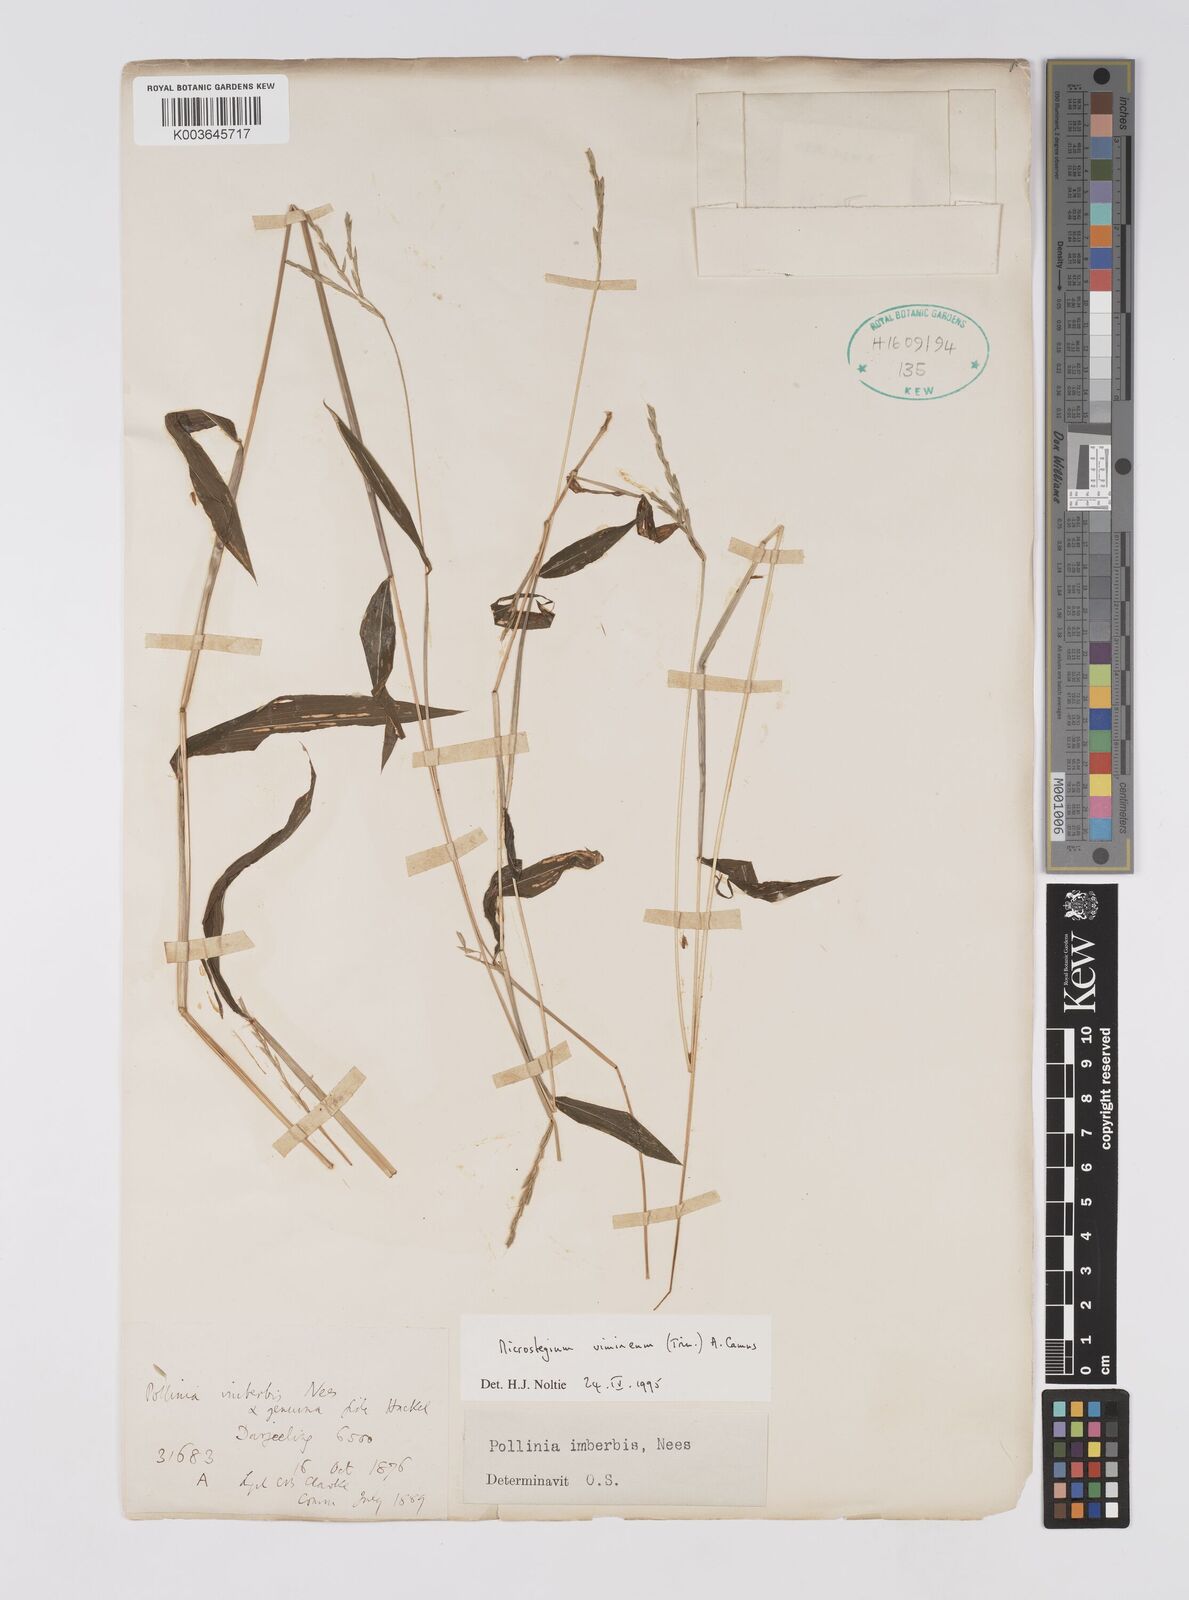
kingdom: Plantae
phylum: Tracheophyta
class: Liliopsida
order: Poales
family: Poaceae
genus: Microstegium
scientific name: Microstegium vimineum
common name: Japanese stiltgrass
